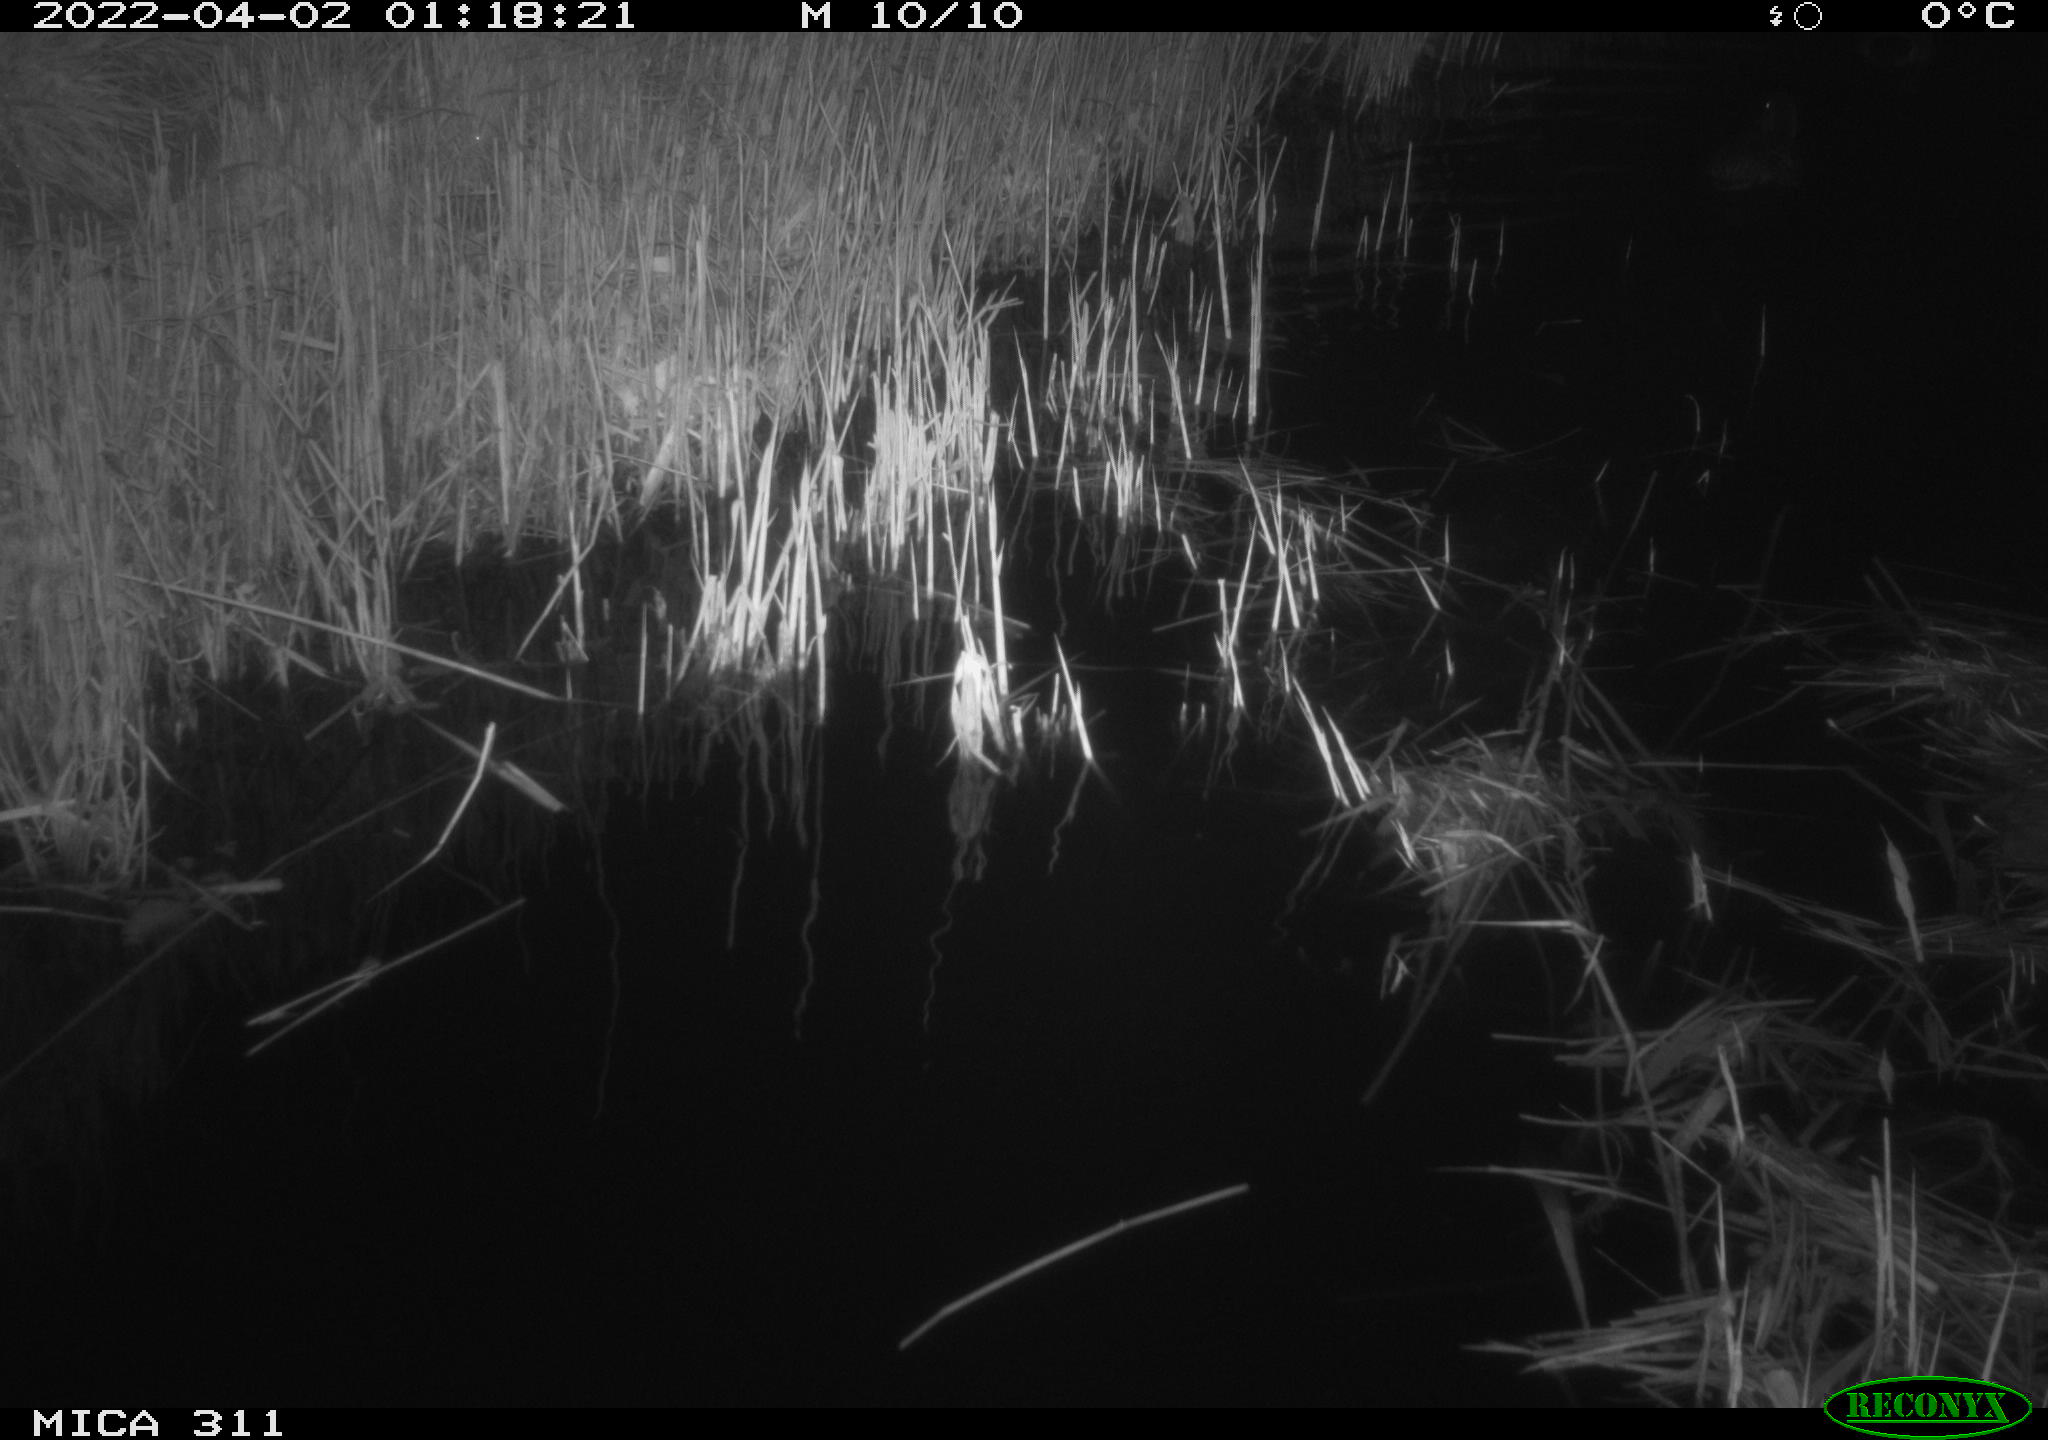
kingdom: Animalia
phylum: Chordata
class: Aves
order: Anseriformes
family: Anatidae
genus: Anas
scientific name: Anas platyrhynchos
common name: Mallard
